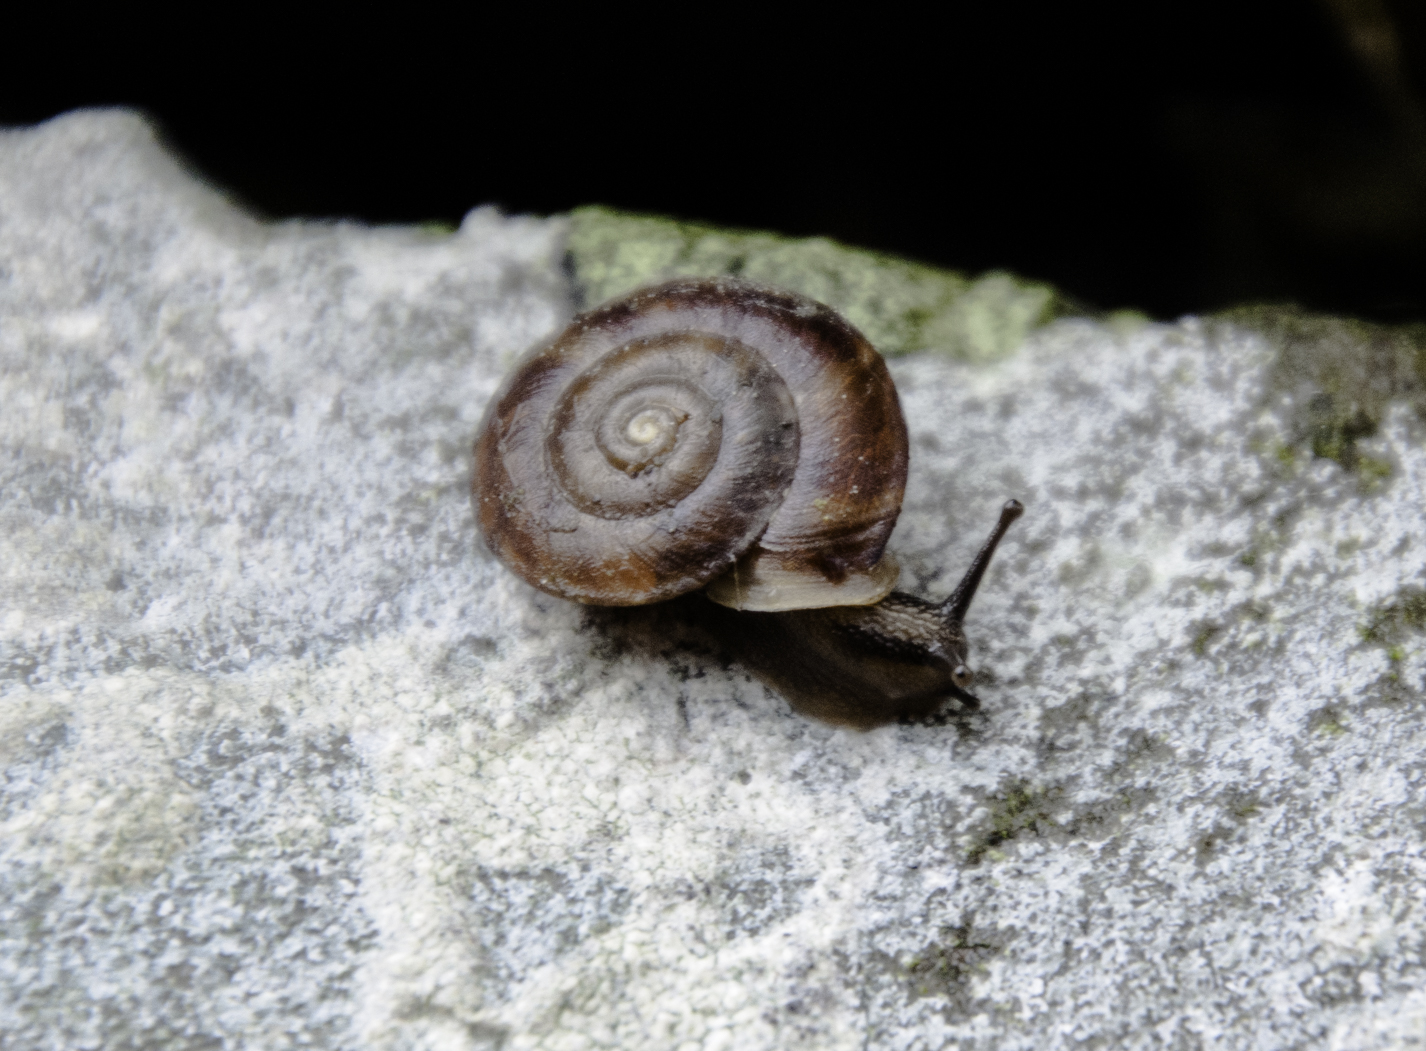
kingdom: Animalia
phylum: Mollusca
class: Gastropoda
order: Stylommatophora
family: Helicidae
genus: Helicigona
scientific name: Helicigona lapicida
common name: Lapidary snail
